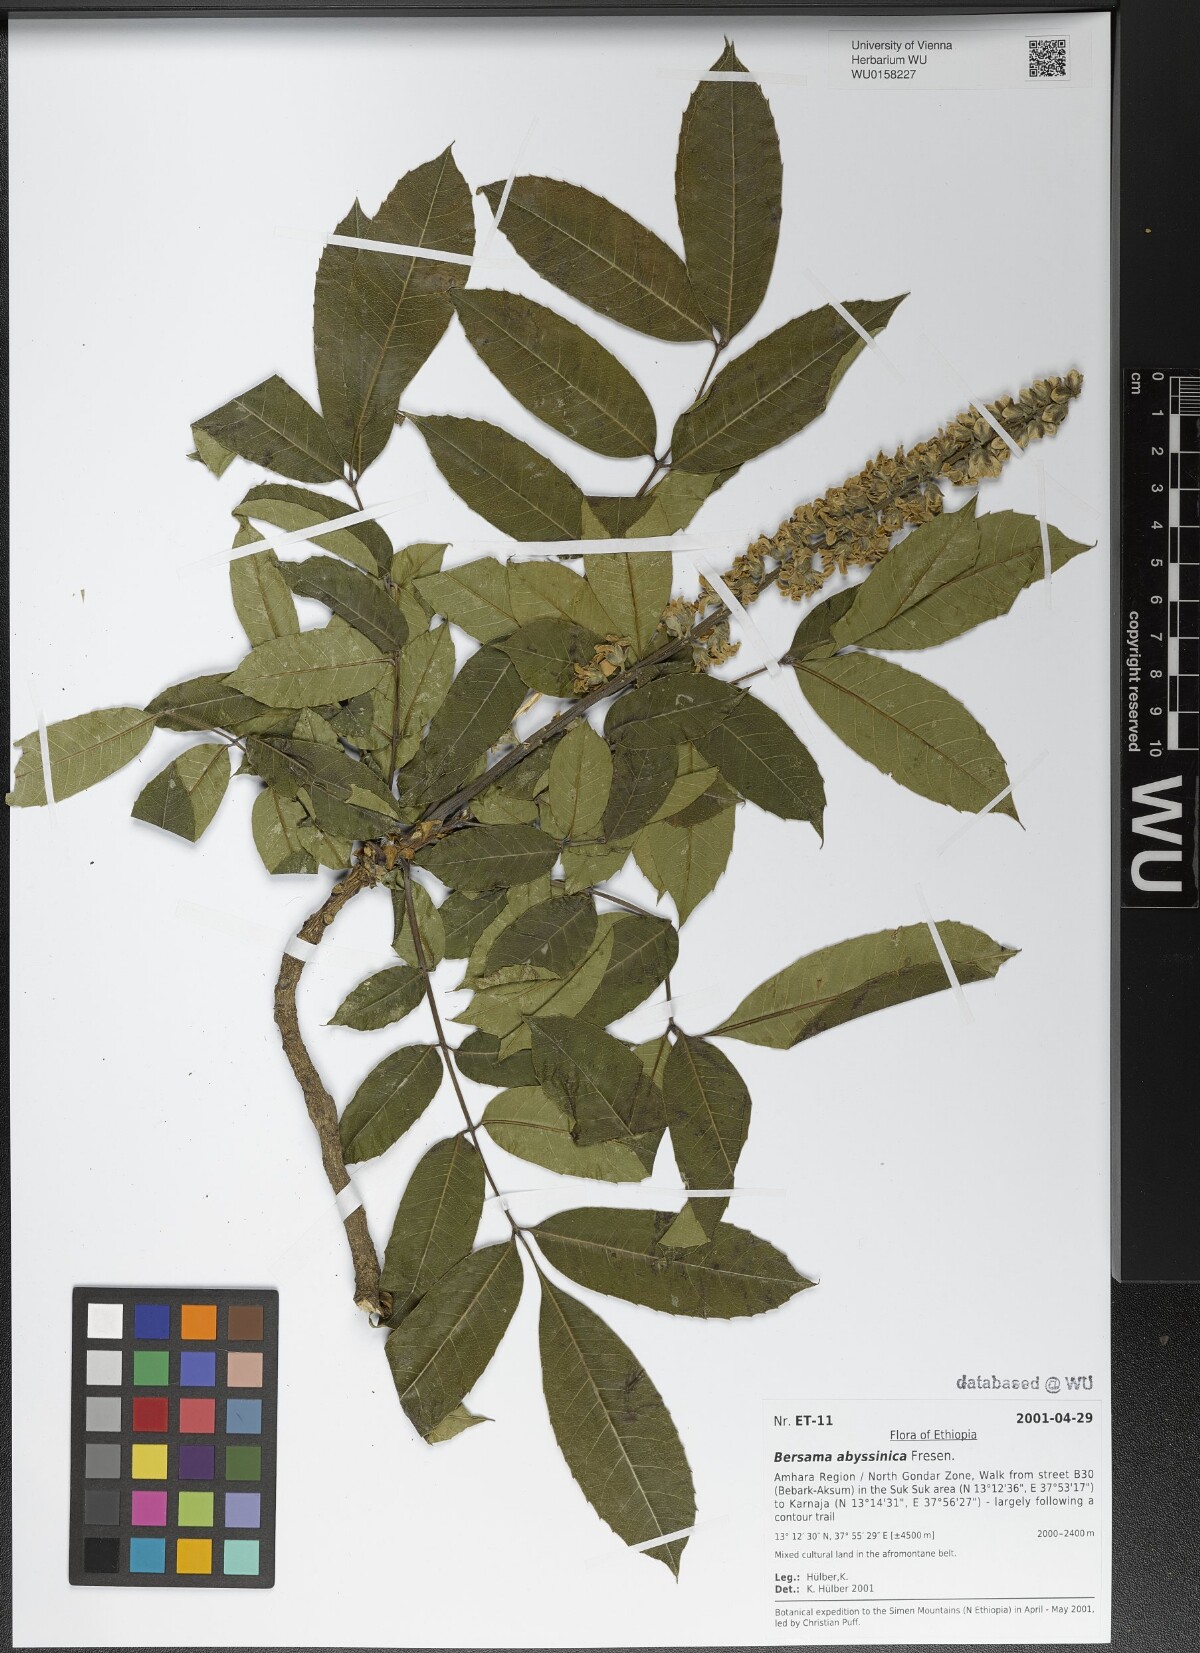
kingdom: Plantae
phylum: Tracheophyta
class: Magnoliopsida
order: Geraniales
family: Melianthaceae
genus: Bersama
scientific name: Bersama abyssinica
